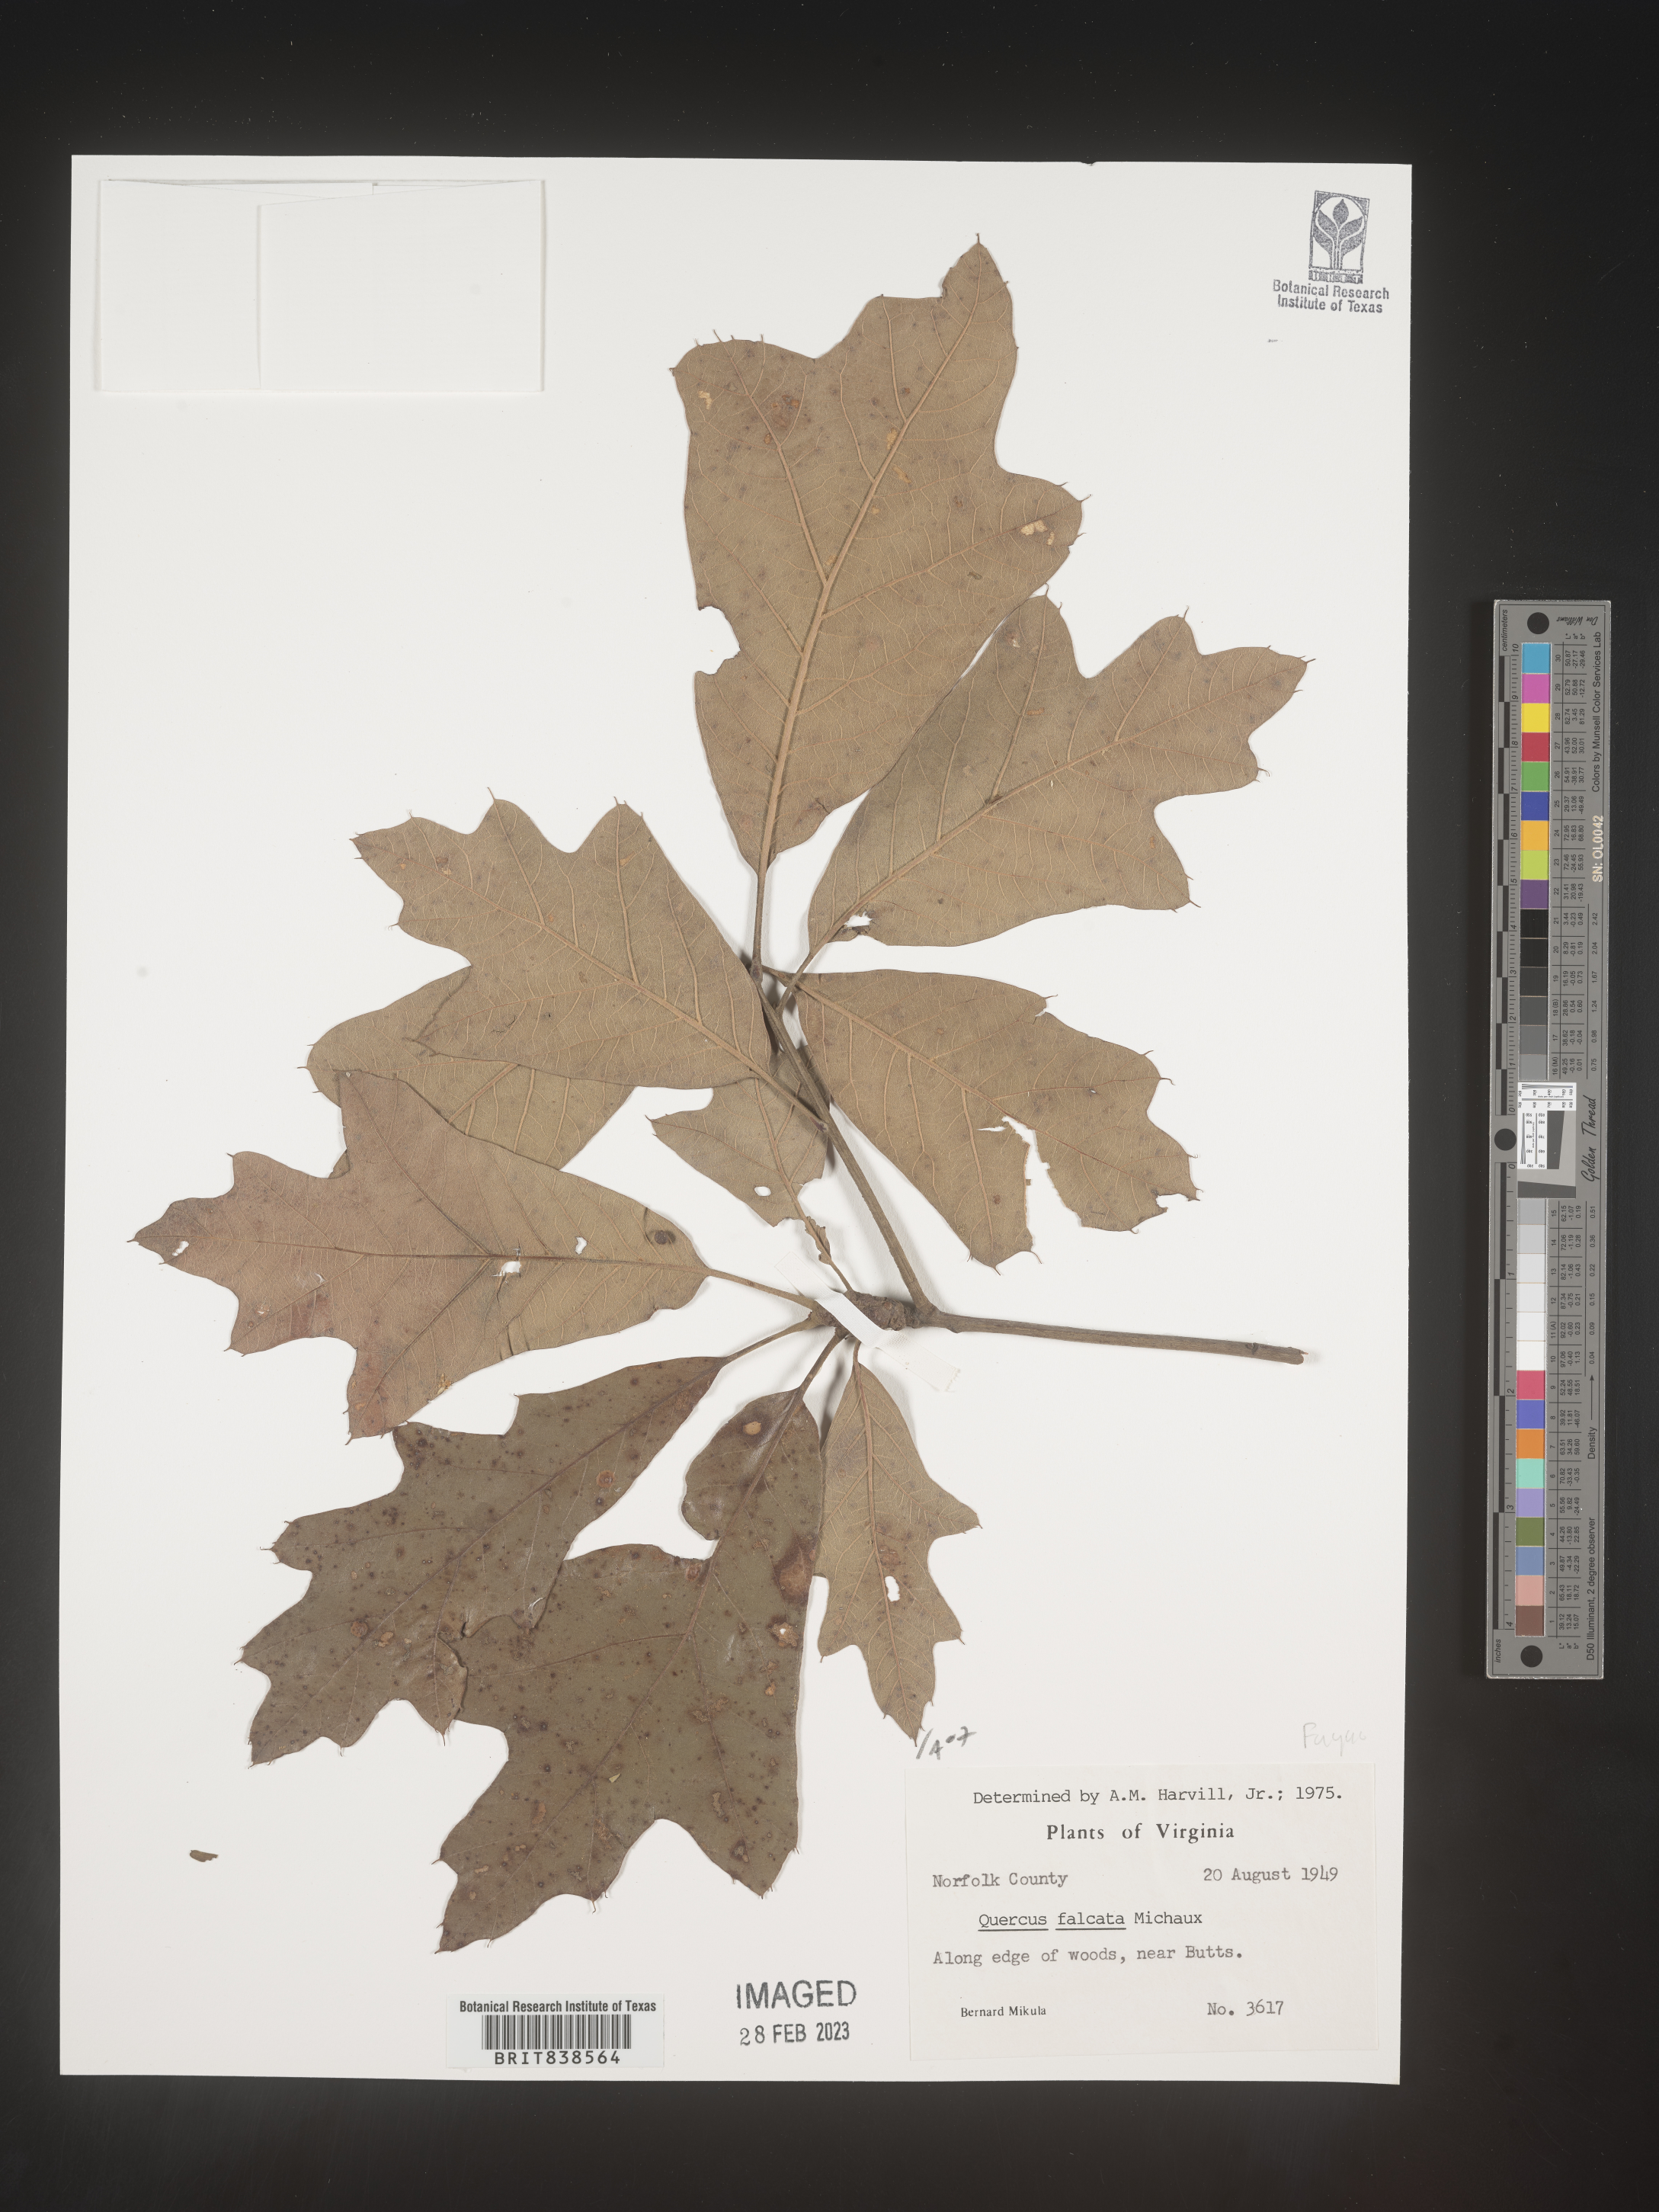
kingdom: Plantae
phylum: Tracheophyta
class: Magnoliopsida
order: Fagales
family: Fagaceae
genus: Quercus
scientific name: Quercus falcata
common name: Southern red oak
